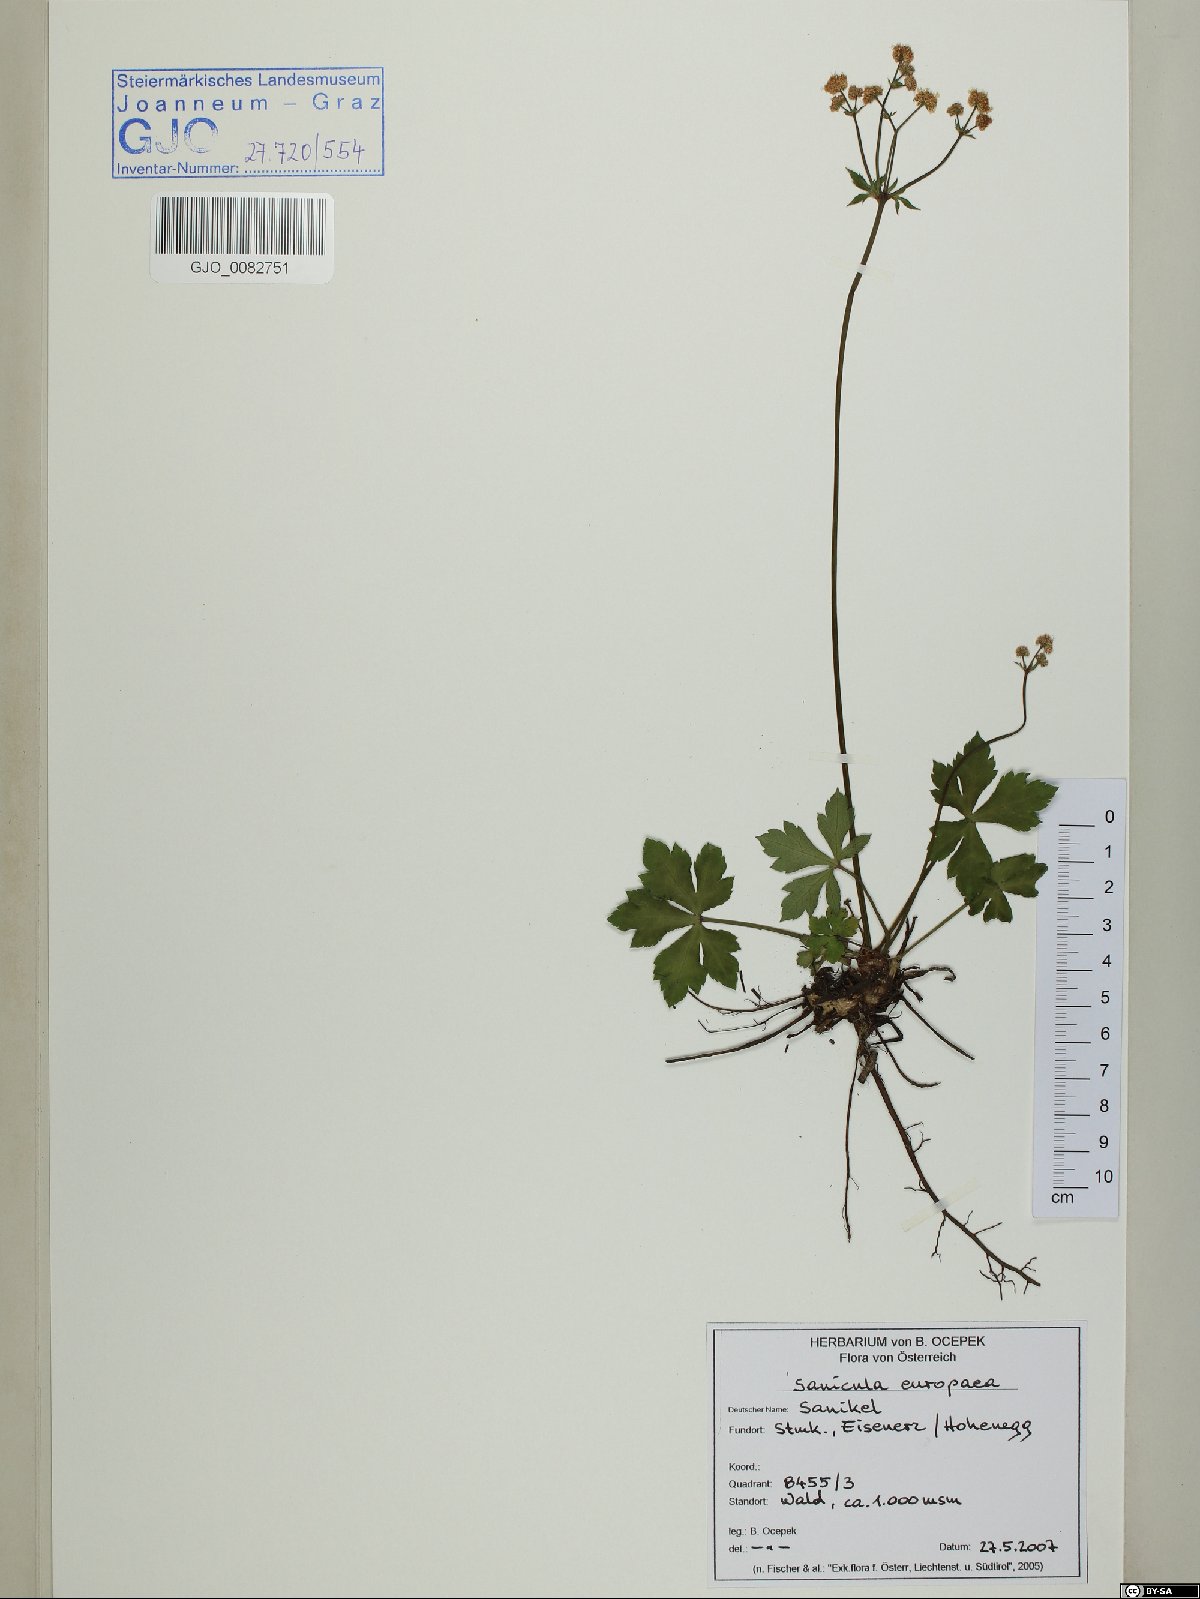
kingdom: Plantae
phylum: Tracheophyta
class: Magnoliopsida
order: Apiales
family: Apiaceae
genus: Sanicula
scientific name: Sanicula europaea
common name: Sanicle
